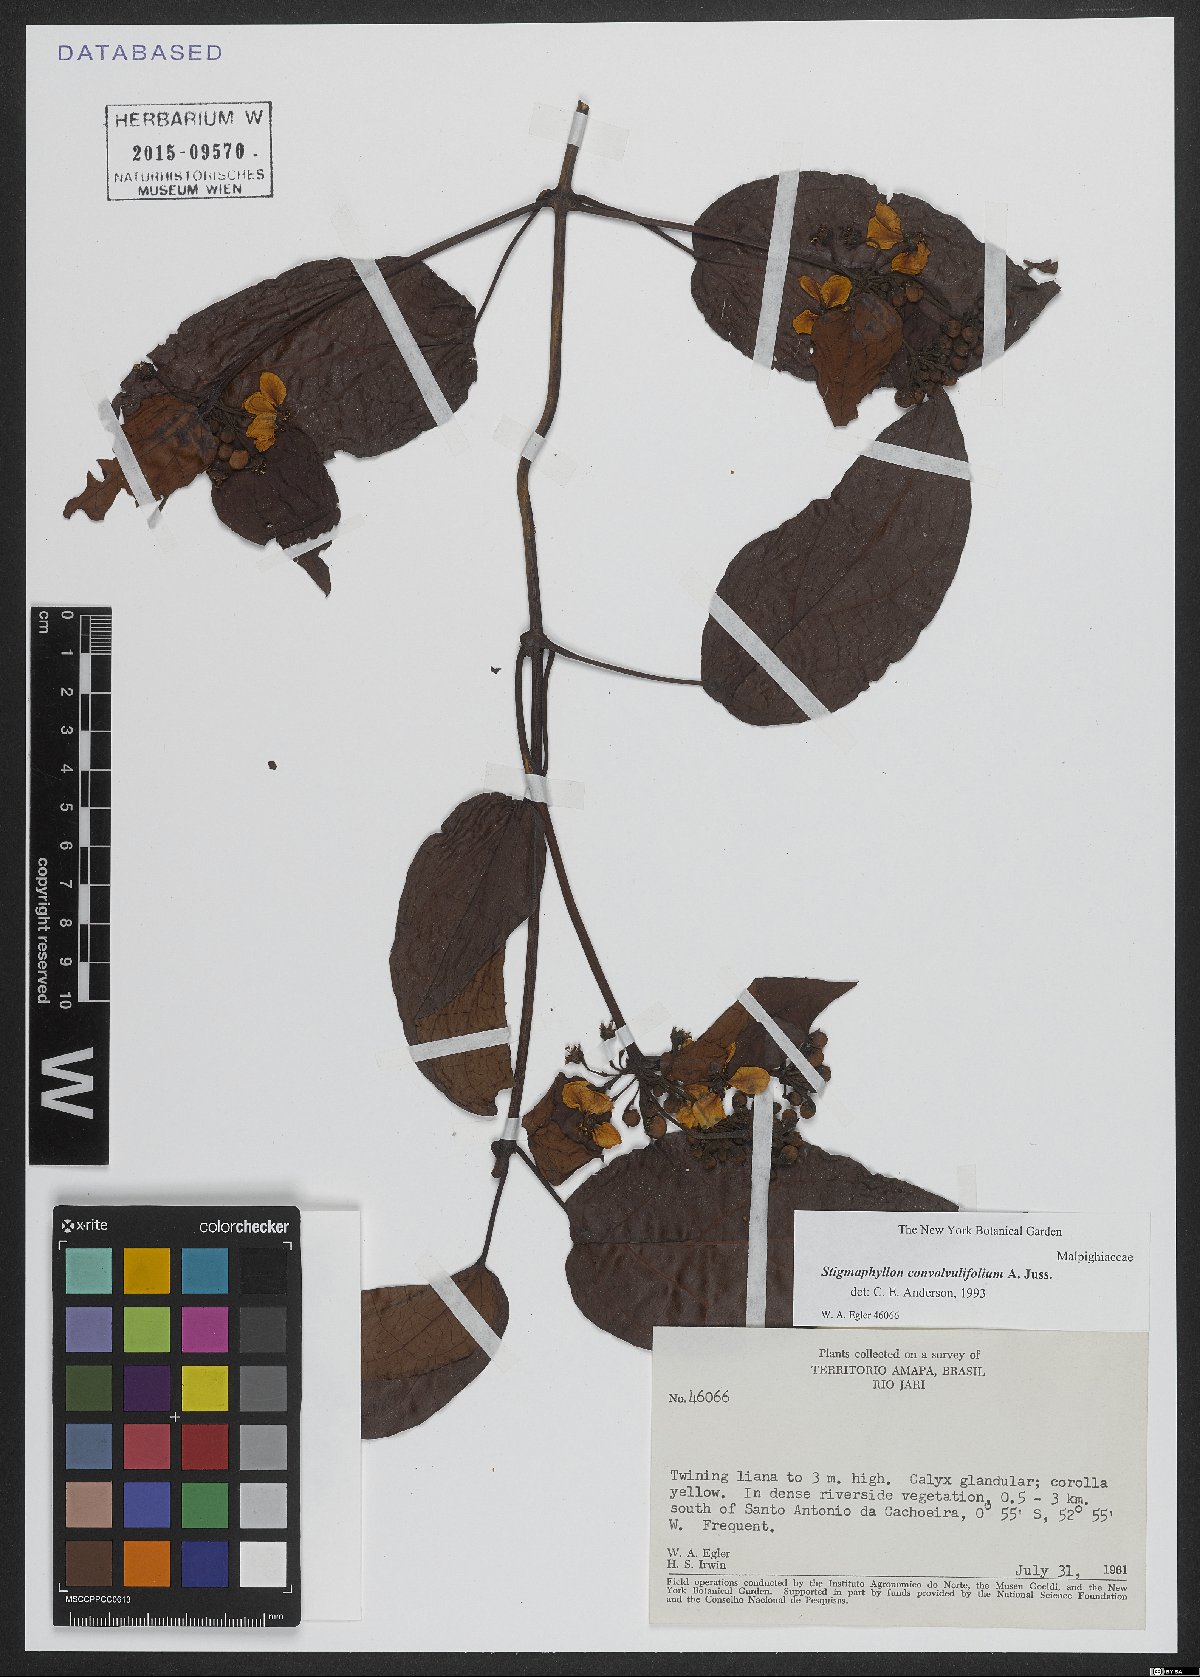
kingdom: Plantae
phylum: Tracheophyta
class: Magnoliopsida
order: Malpighiales
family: Malpighiaceae
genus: Stigmaphyllon
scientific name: Stigmaphyllon convolvulifolium
